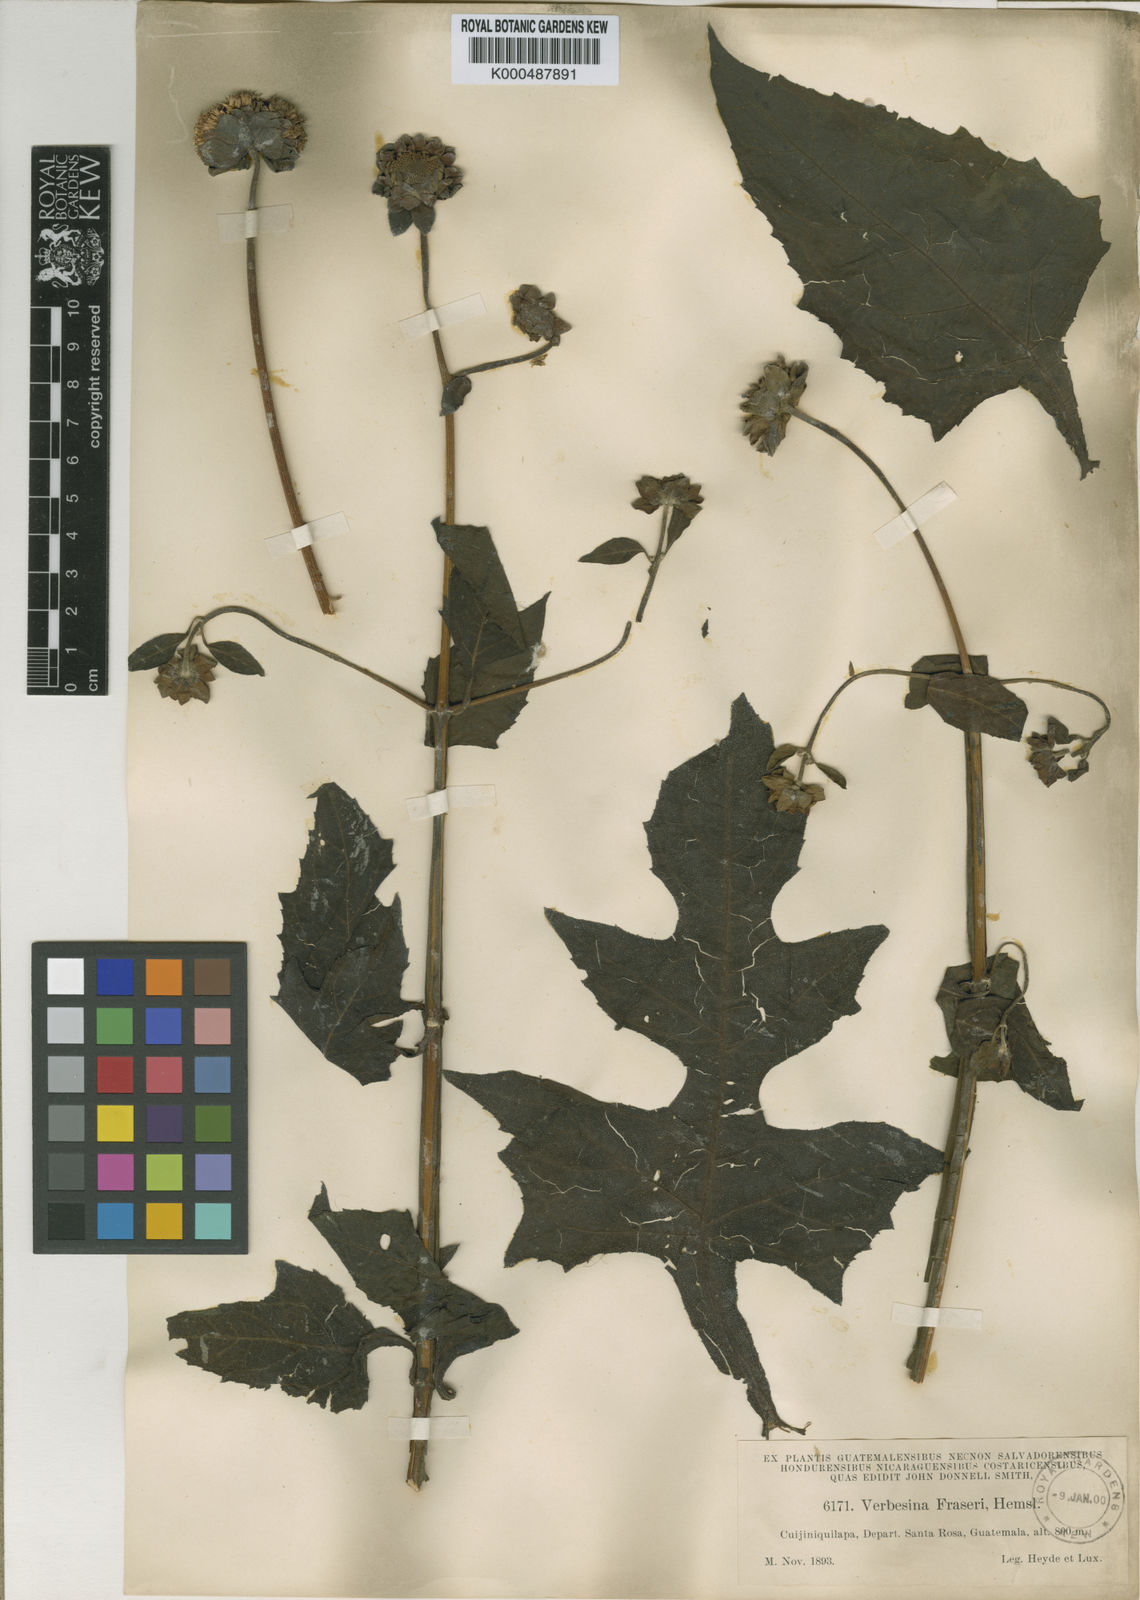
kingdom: Plantae
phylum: Tracheophyta
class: Magnoliopsida
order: Asterales
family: Asteraceae
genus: Verbesina
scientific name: Verbesina fraseri
